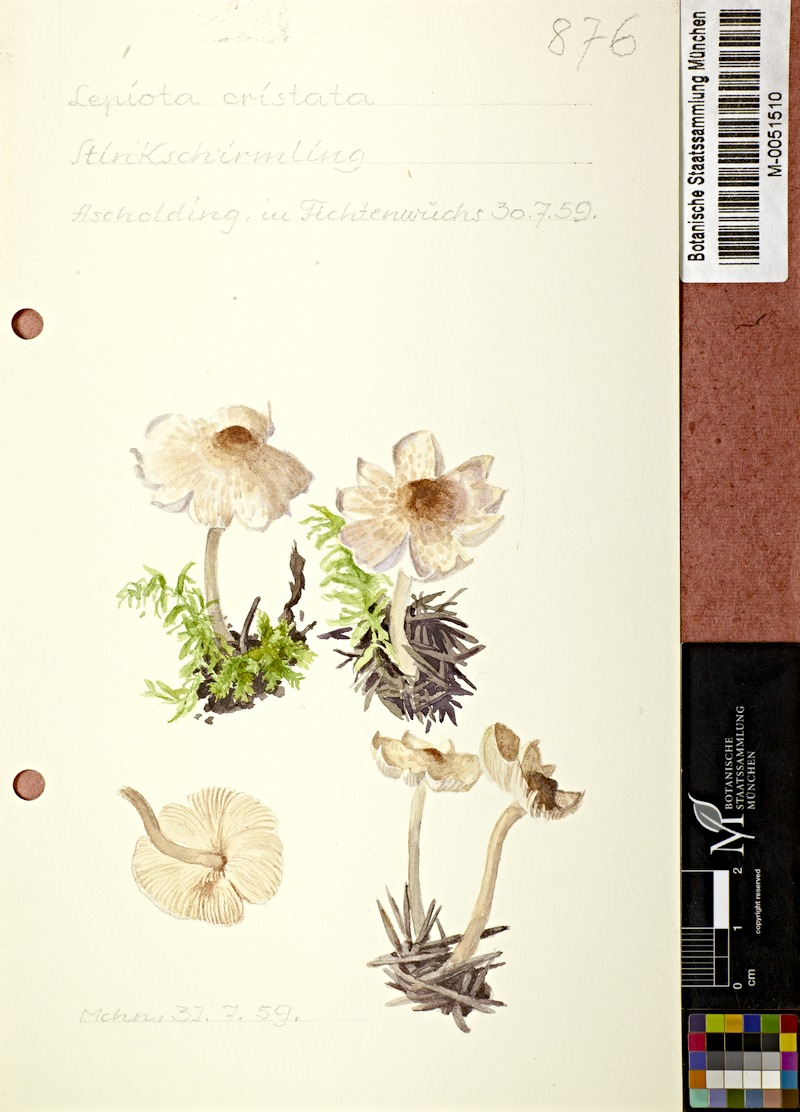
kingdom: Fungi
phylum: Basidiomycota
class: Agaricomycetes
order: Agaricales
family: Agaricaceae
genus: Lepiota
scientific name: Lepiota cristata
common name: Stinking dapperling
